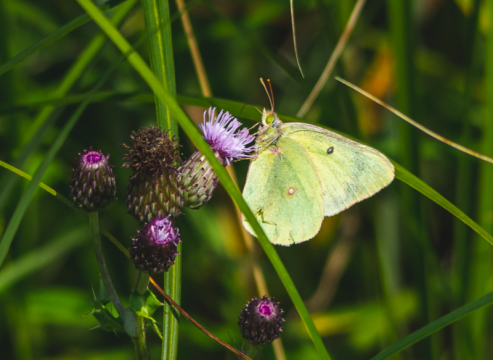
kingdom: Animalia
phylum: Arthropoda
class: Insecta
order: Lepidoptera
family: Pieridae
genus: Colias
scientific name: Colias philodice
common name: Clouded Sulphur
